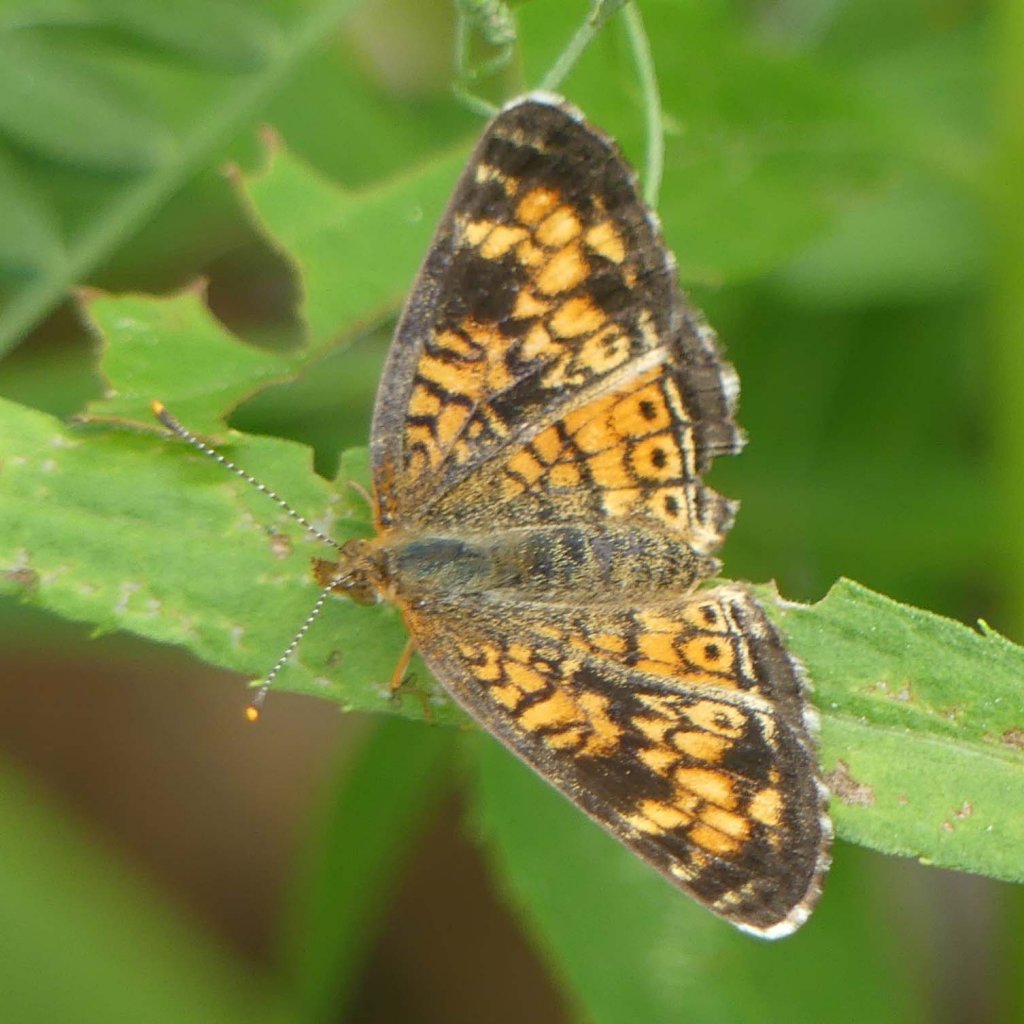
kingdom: Animalia
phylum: Arthropoda
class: Insecta
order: Lepidoptera
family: Nymphalidae
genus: Phyciodes
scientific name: Phyciodes tharos
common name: Pearl Crescent
